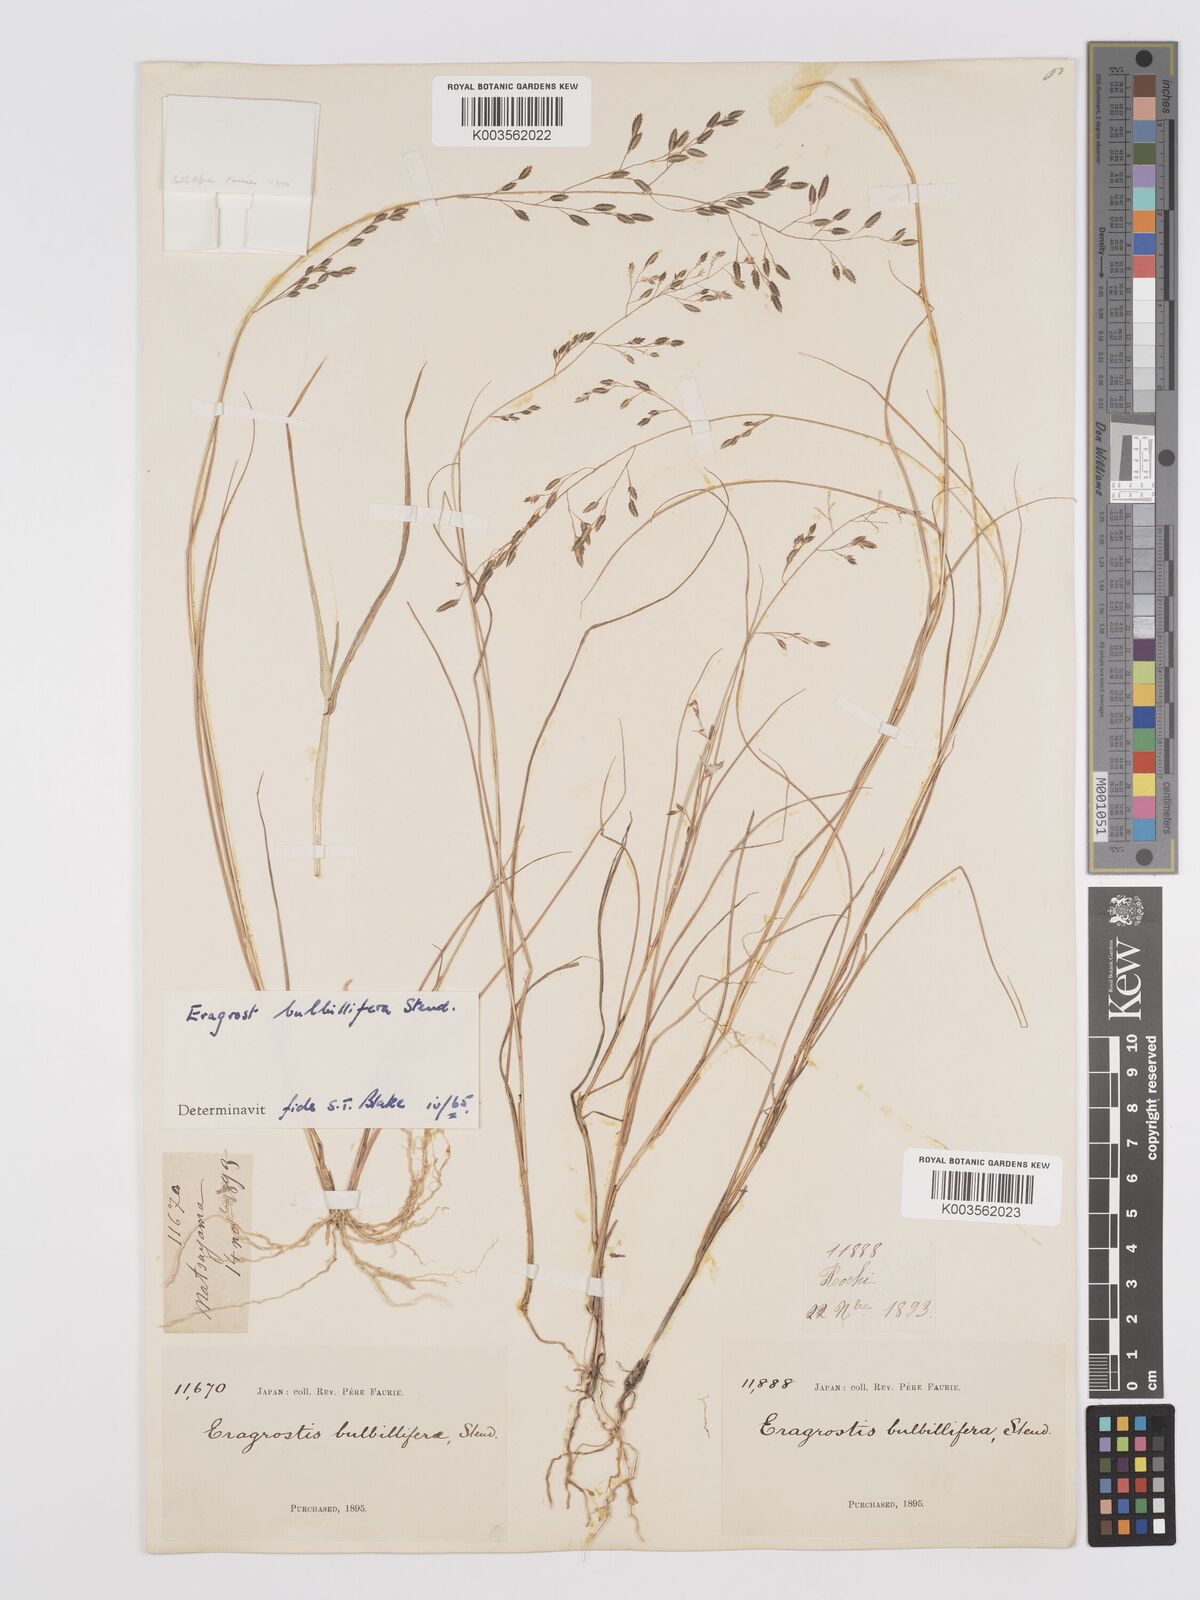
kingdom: Plantae
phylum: Tracheophyta
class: Liliopsida
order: Poales
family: Poaceae
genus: Eragrostis
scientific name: Eragrostis cumingii
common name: Cuming's lovegrass
